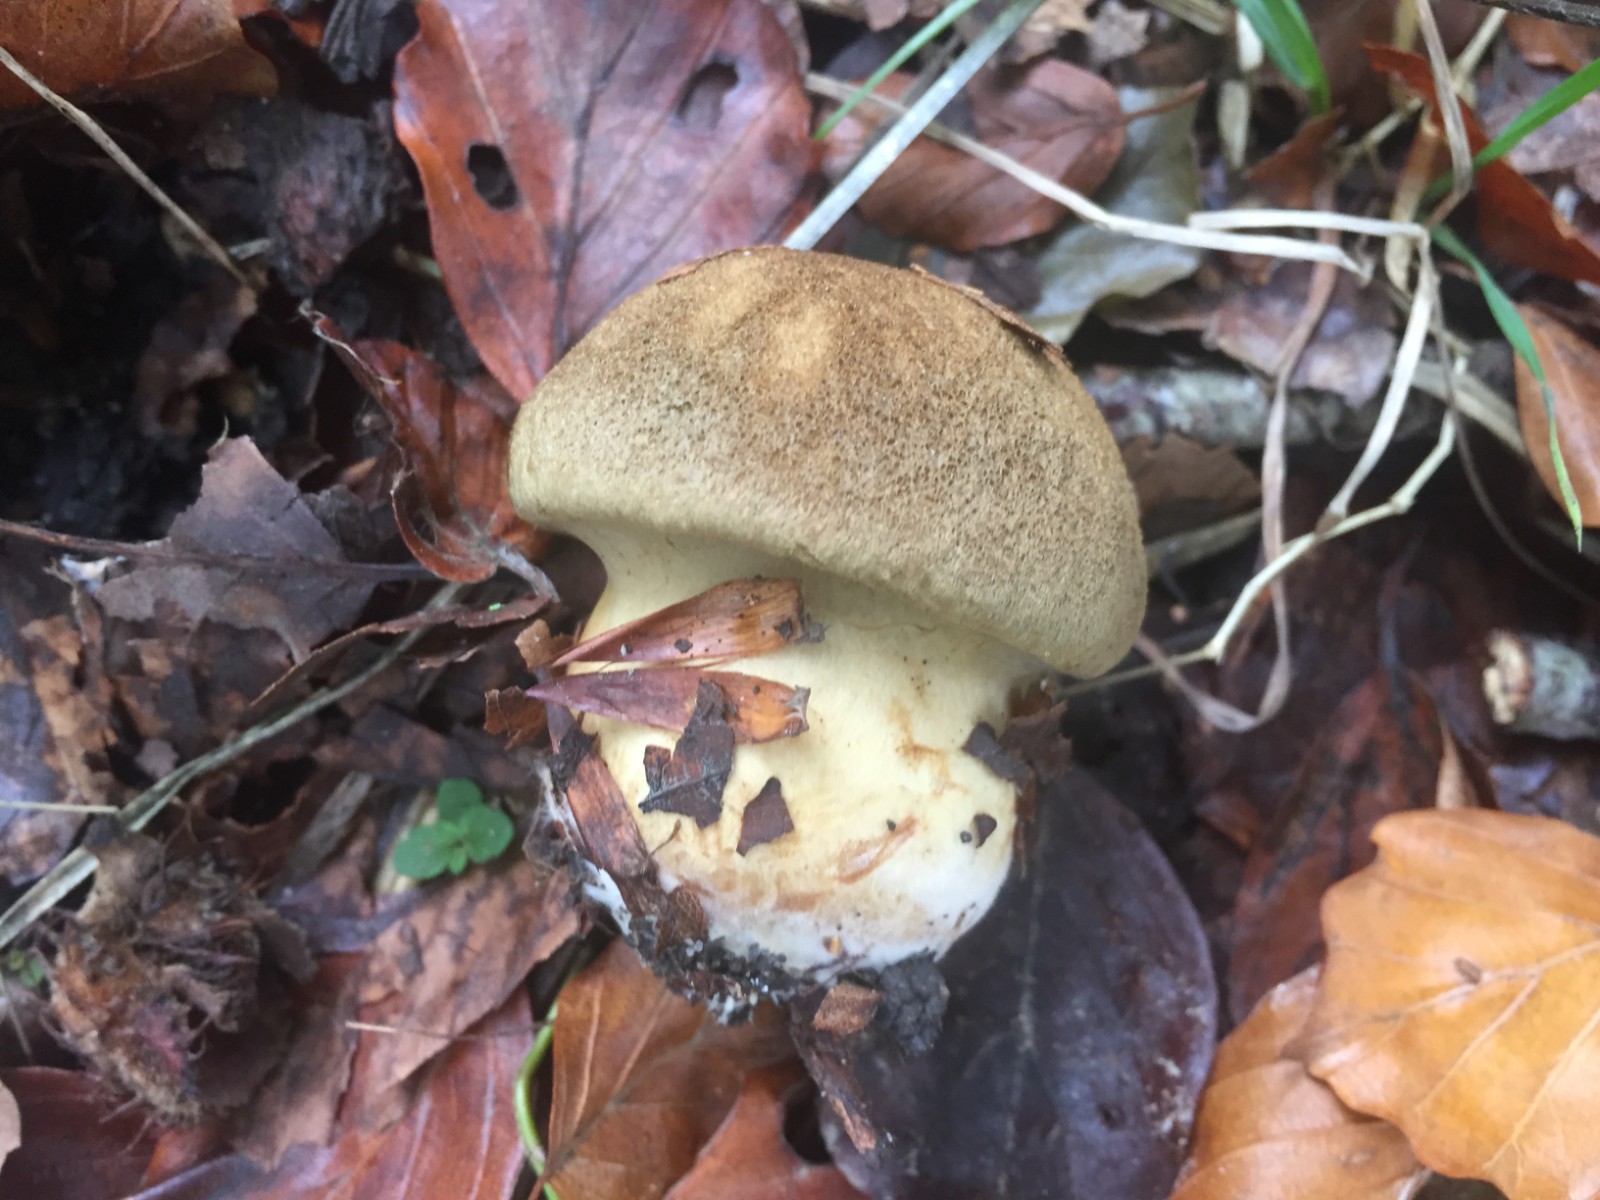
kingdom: Fungi
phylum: Basidiomycota
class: Agaricomycetes
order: Agaricales
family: Cortinariaceae
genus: Cortinarius
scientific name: Cortinarius cotoneus
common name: ulden slørhat
